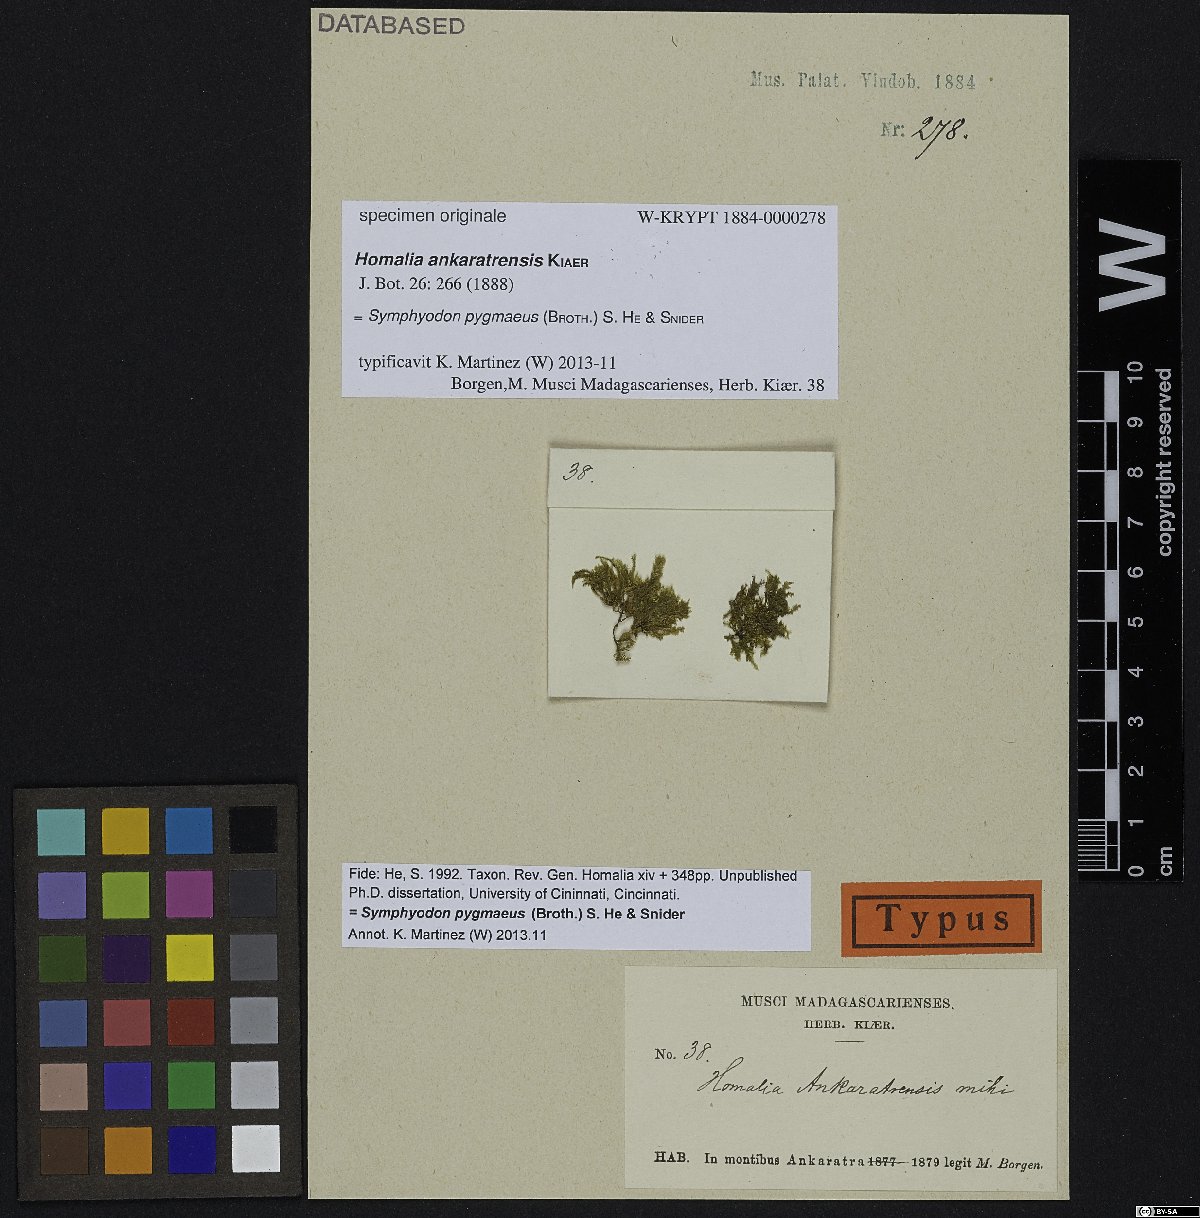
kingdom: Plantae
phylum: Bryophyta
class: Bryopsida
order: Hypnales
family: Neckeraceae
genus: Circulifolium
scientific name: Circulifolium exiguum
